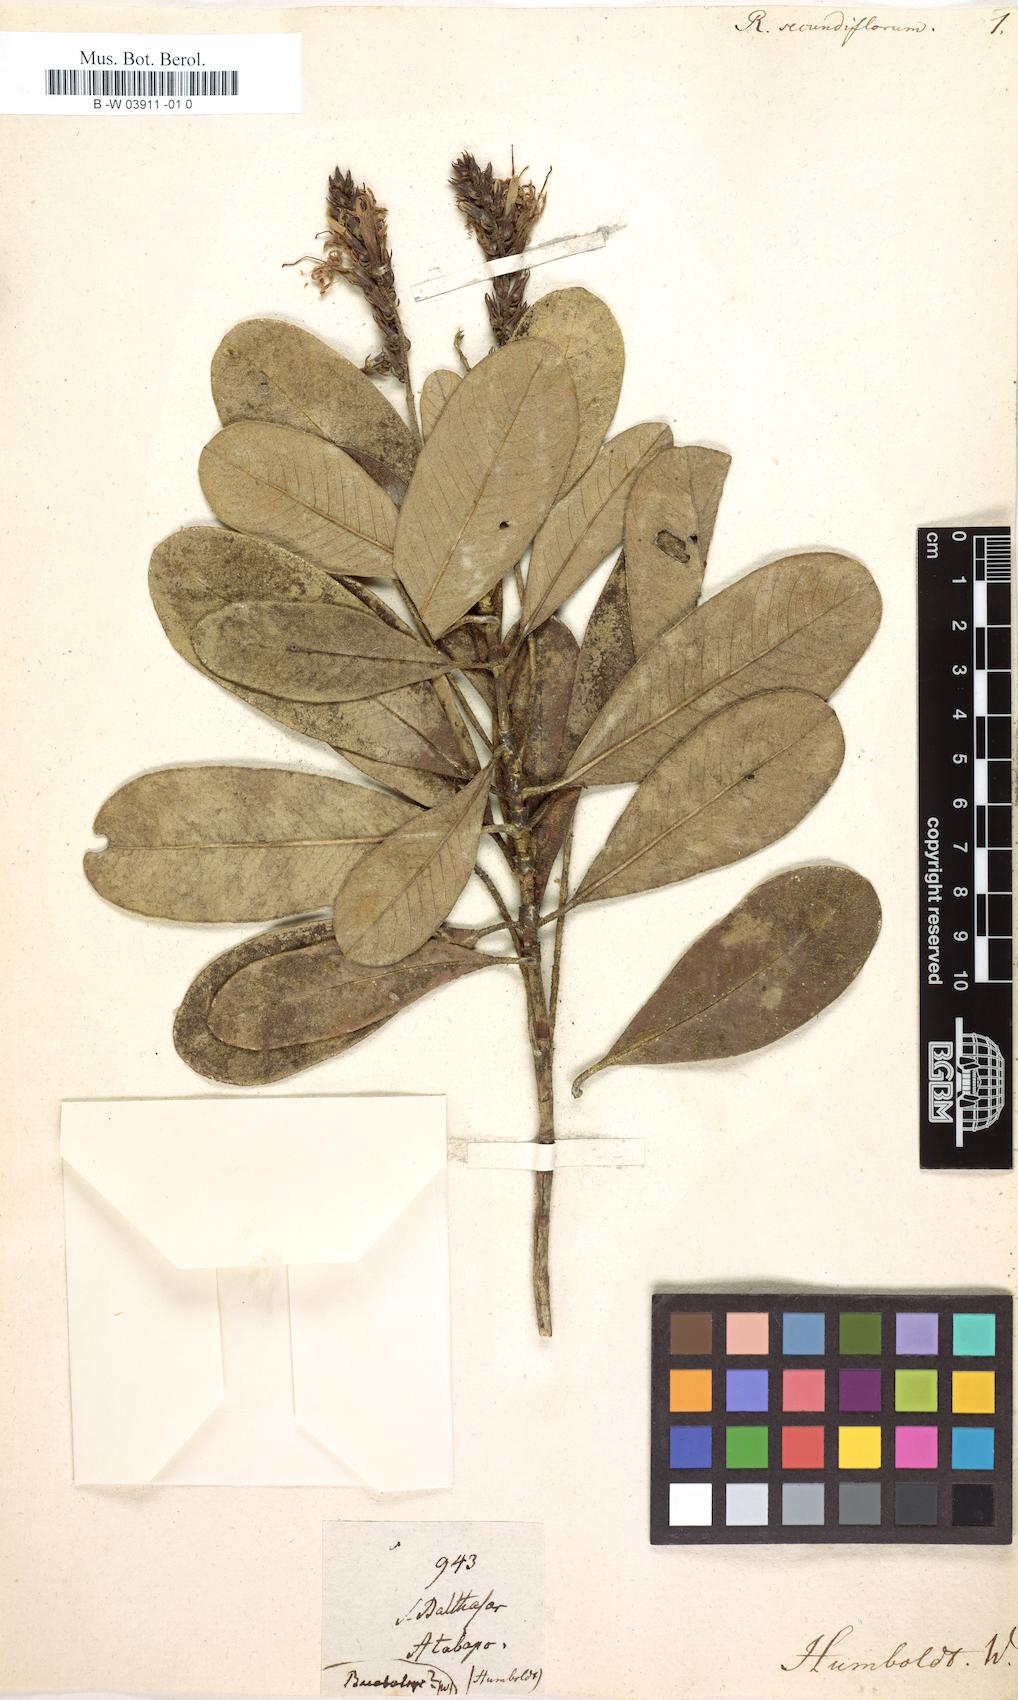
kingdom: Plantae
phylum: Tracheophyta
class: Magnoliopsida
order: Gentianales
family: Rubiaceae
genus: Retiniphyllum
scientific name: Retiniphyllum secundiflorum
